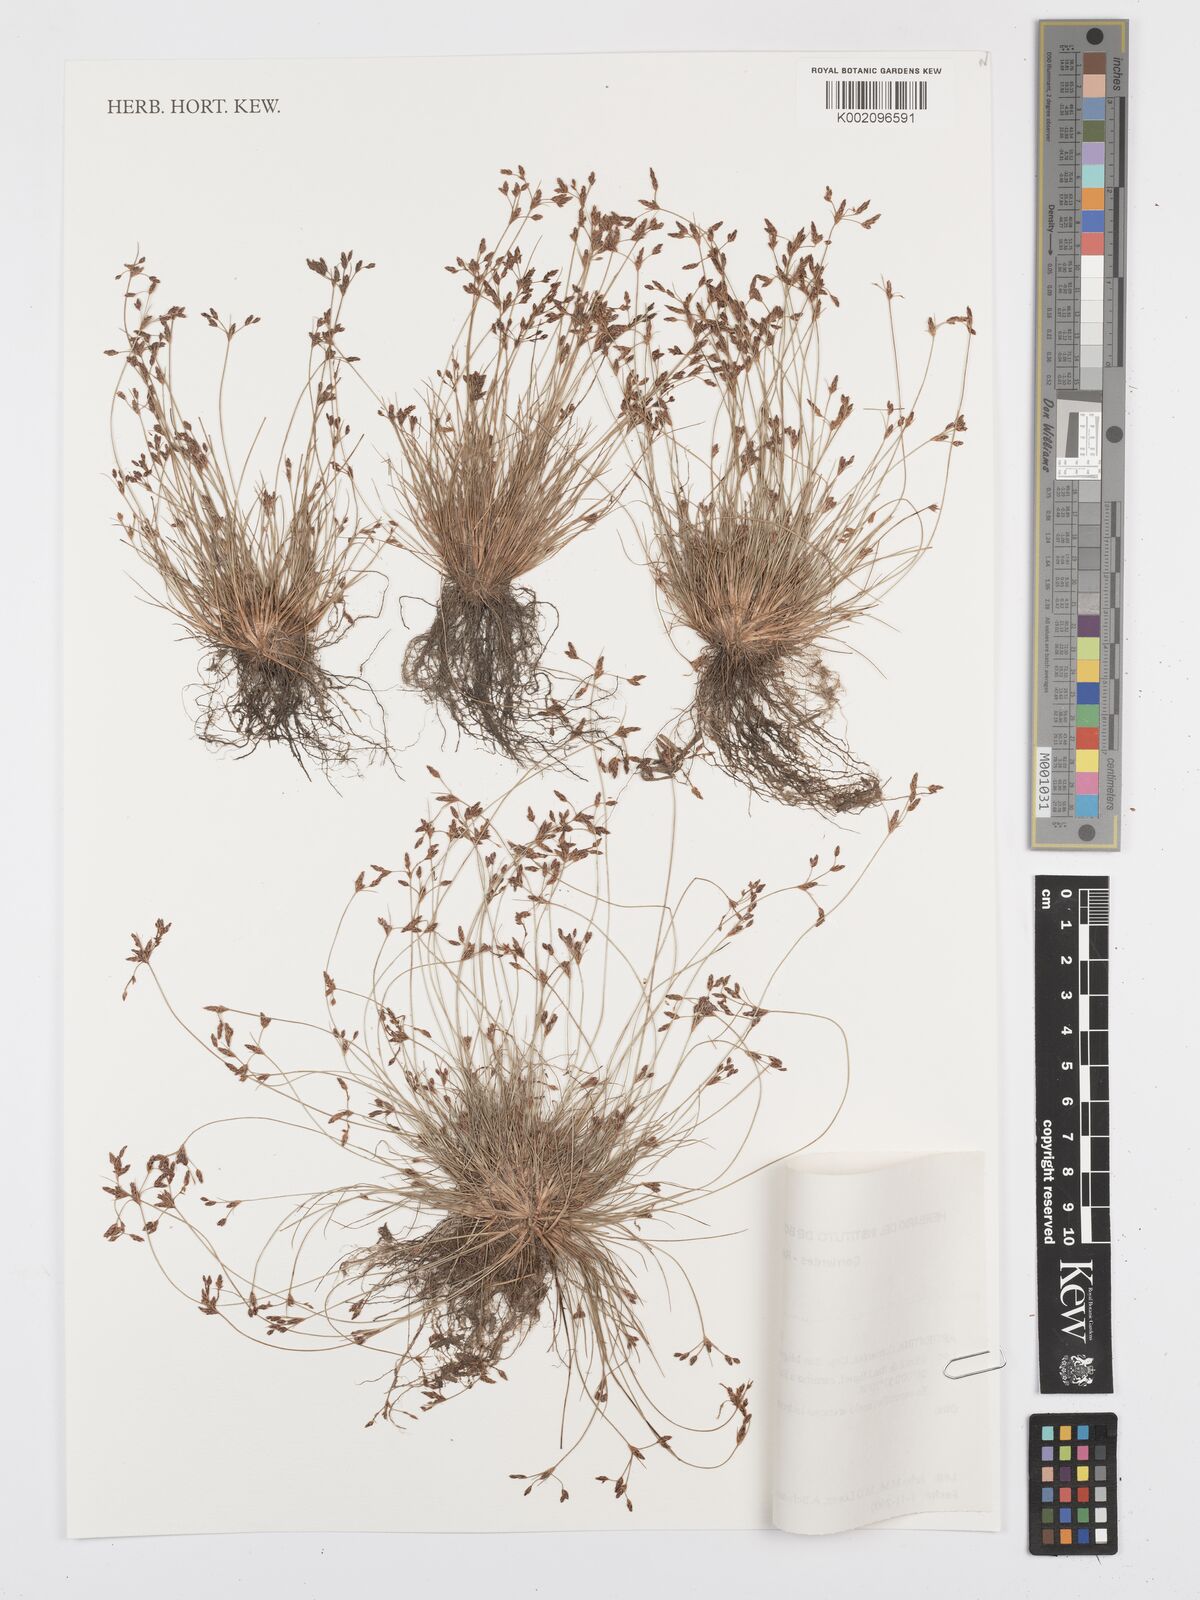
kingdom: Plantae
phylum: Tracheophyta
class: Liliopsida
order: Poales
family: Cyperaceae
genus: Bulbostylis
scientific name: Bulbostylis communis
